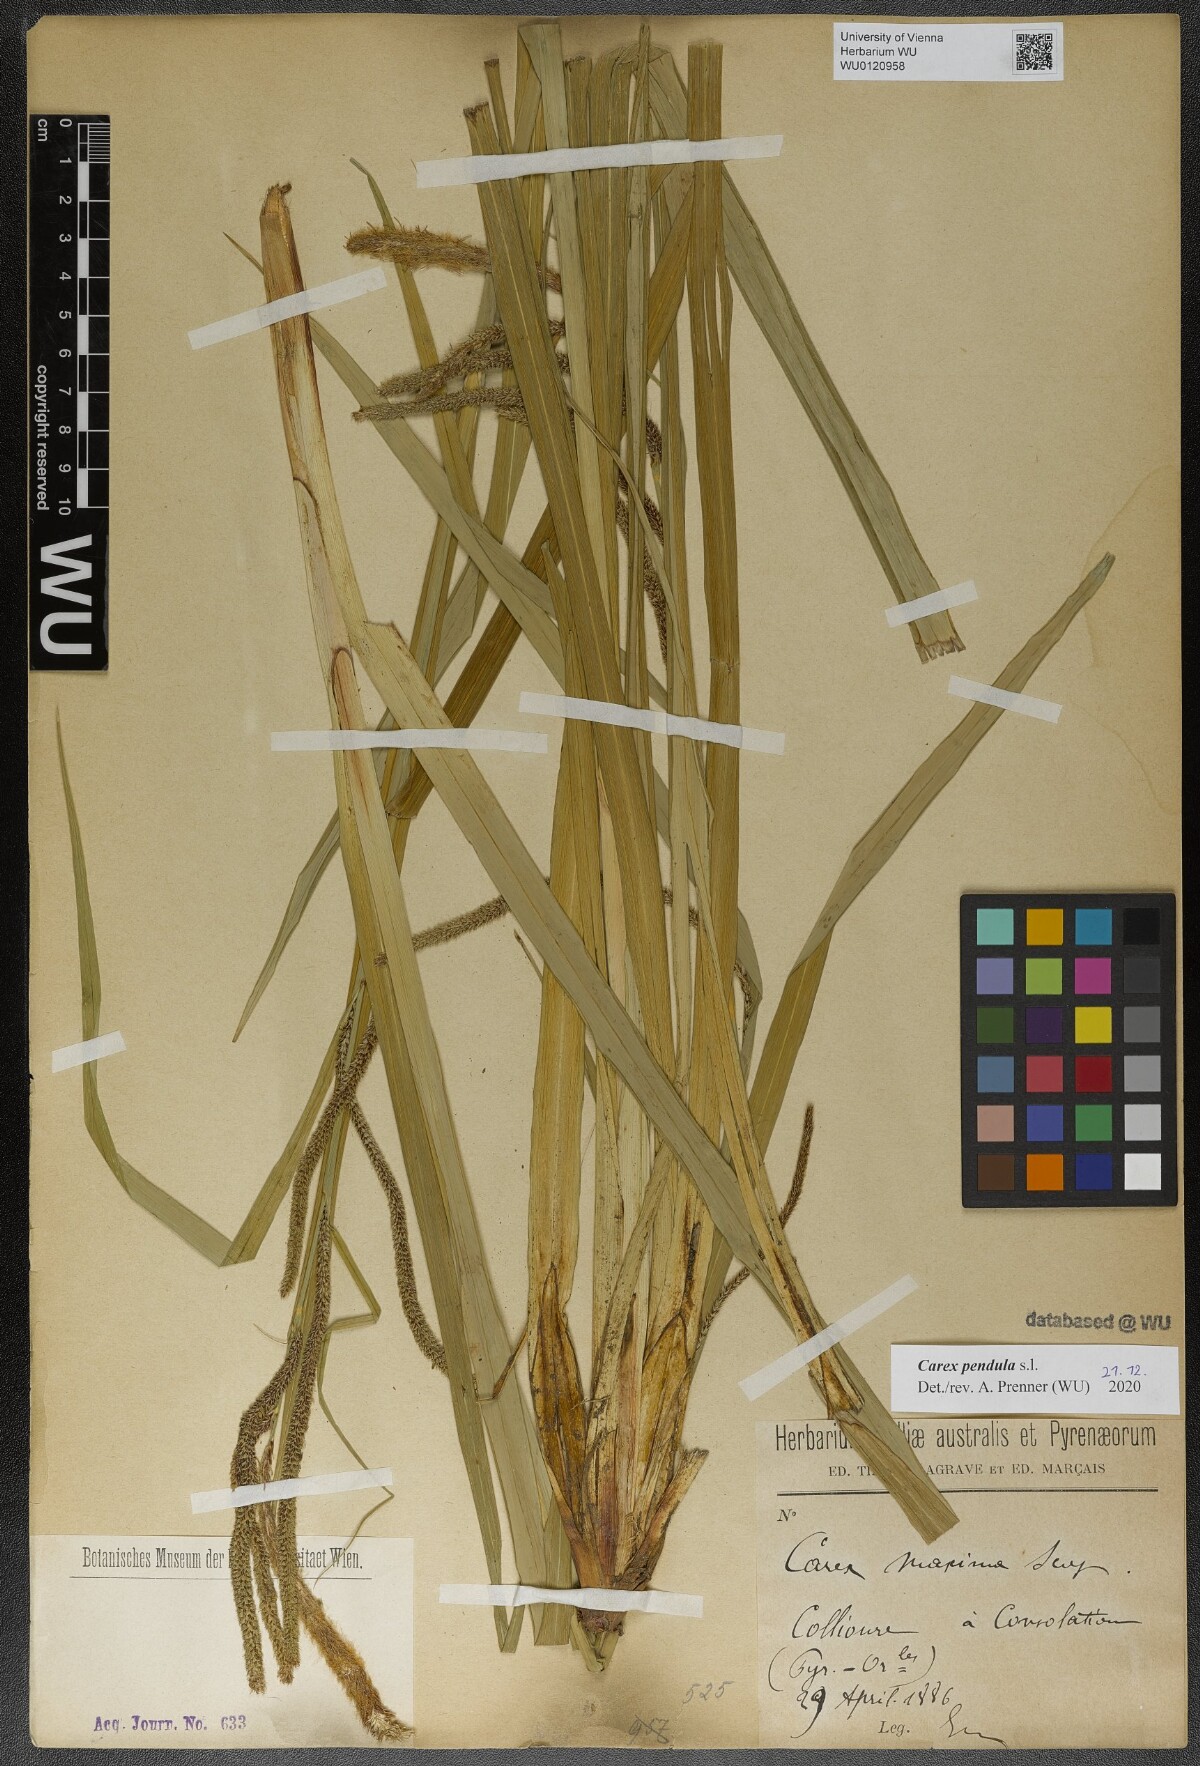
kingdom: Plantae
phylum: Tracheophyta
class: Liliopsida
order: Poales
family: Cyperaceae
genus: Carex
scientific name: Carex pendula
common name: Pendulous sedge
